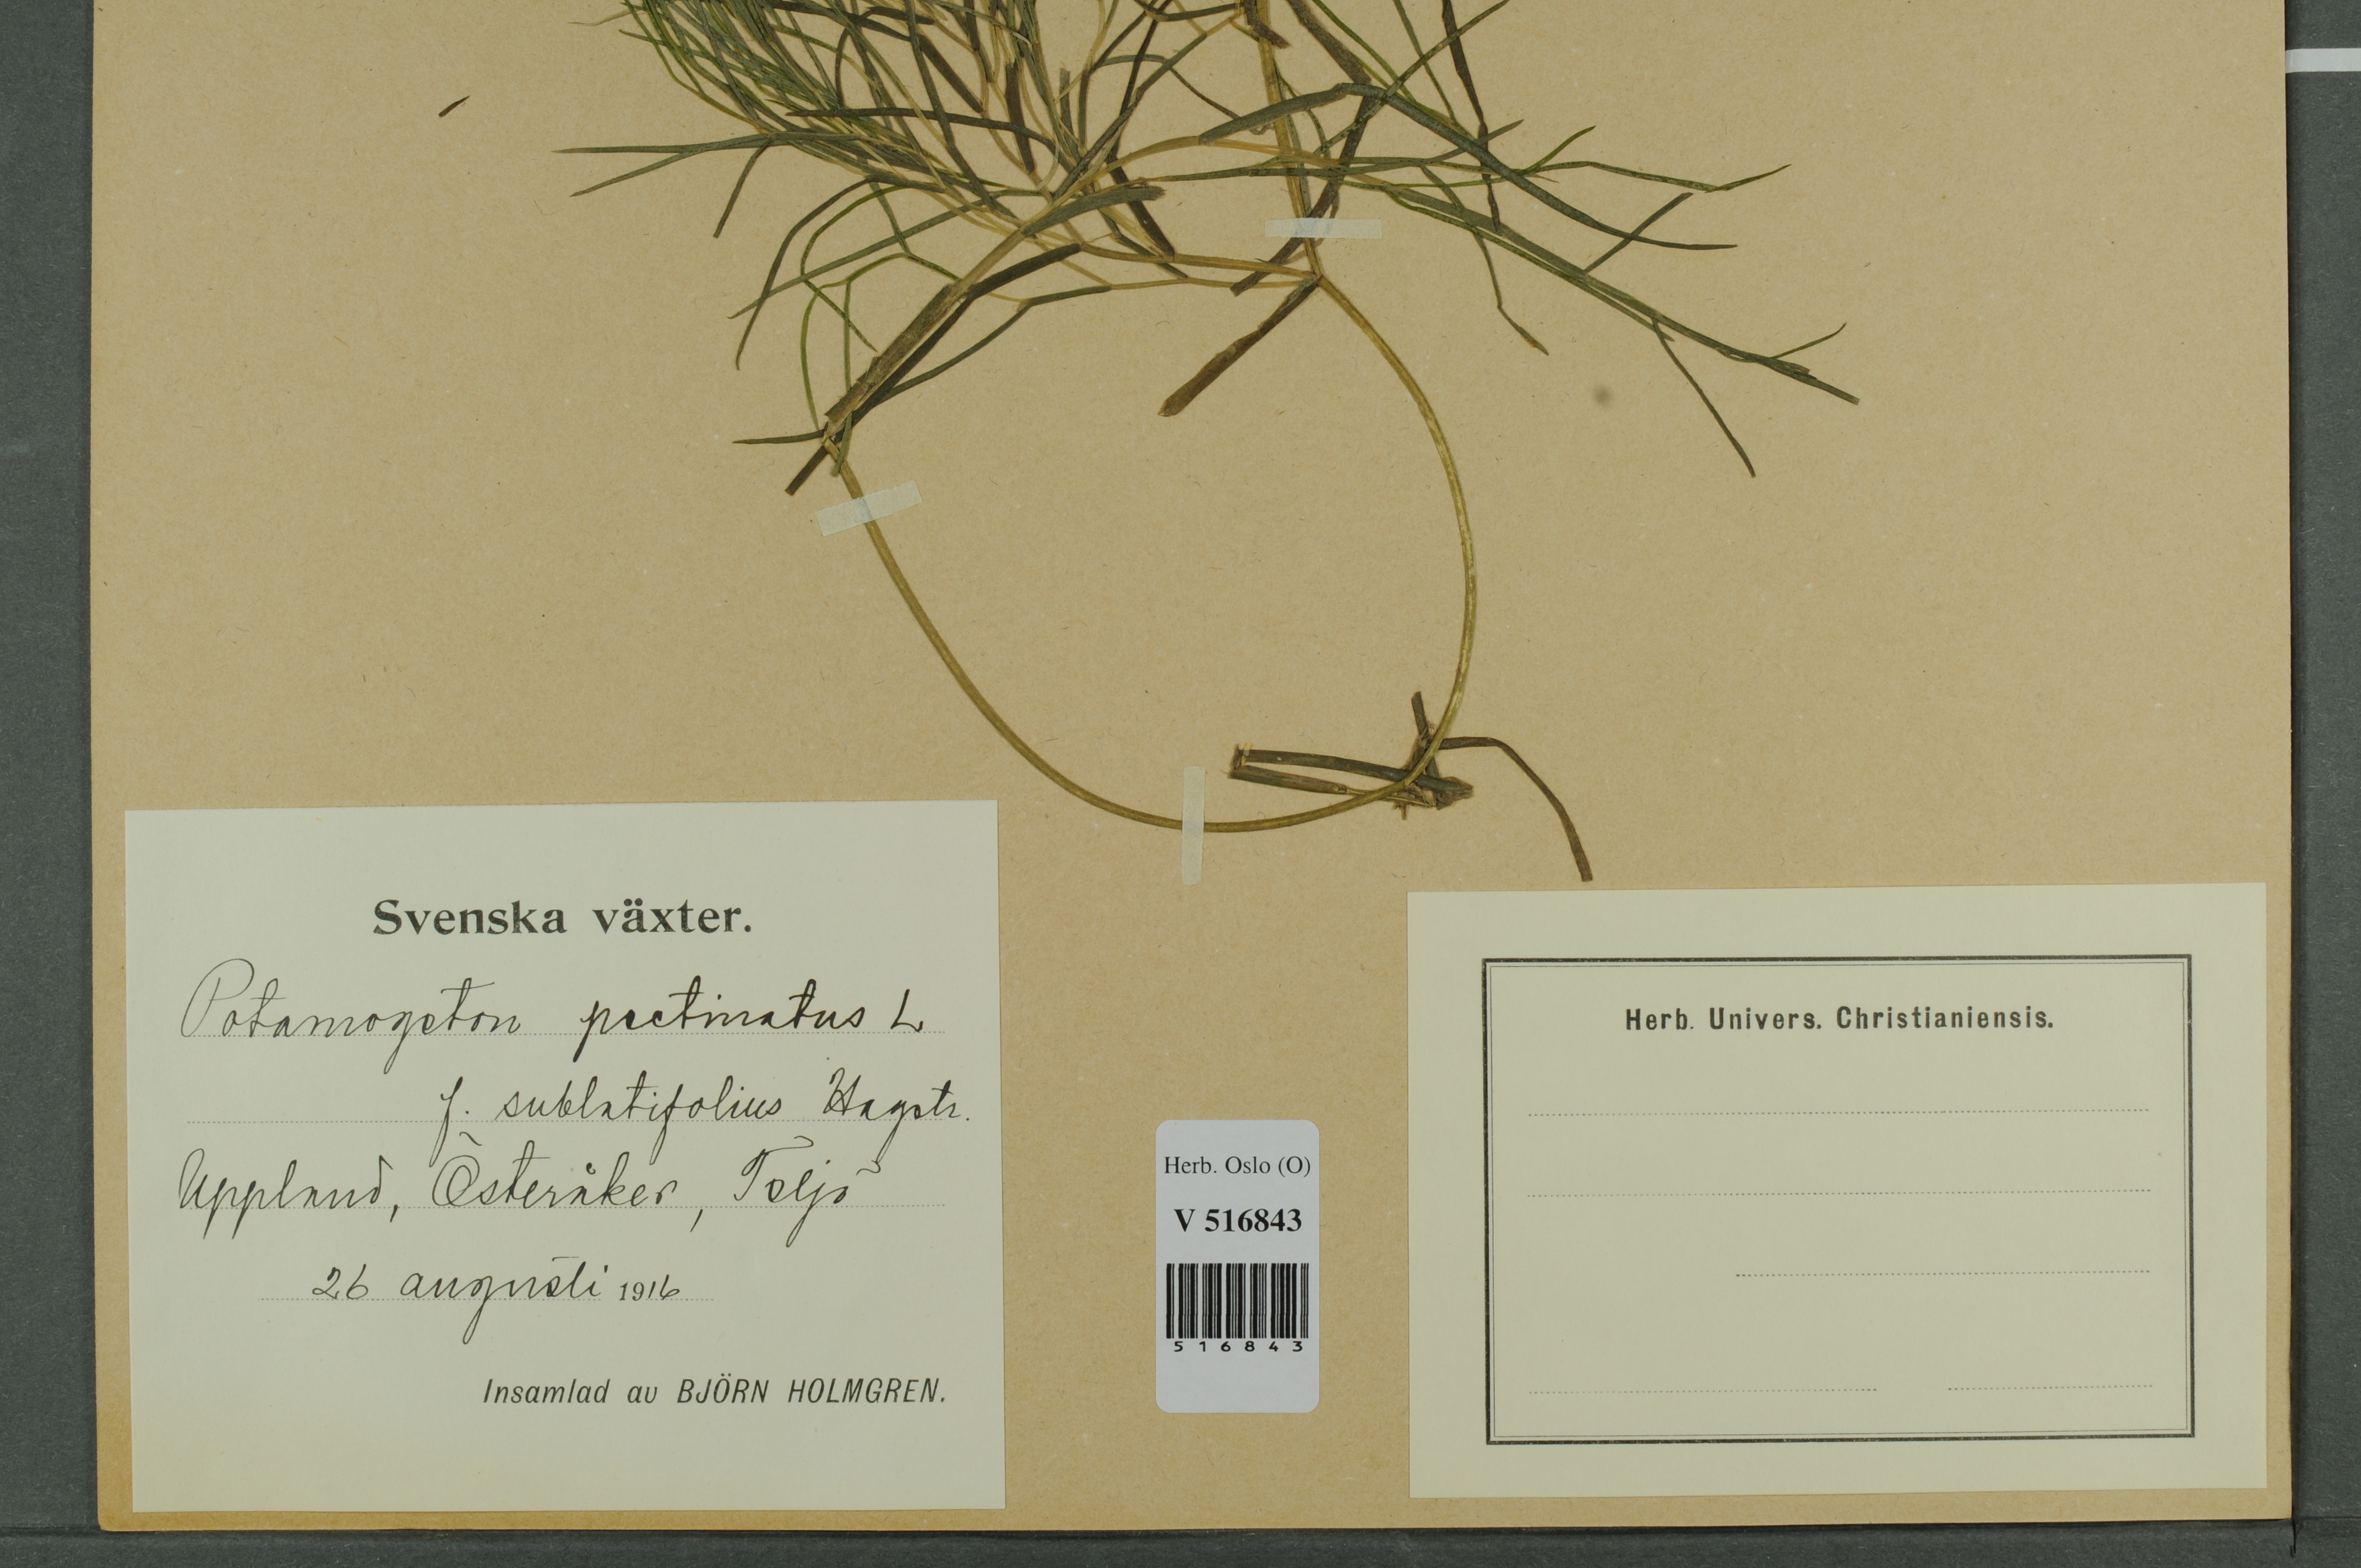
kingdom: Plantae
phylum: Tracheophyta
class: Liliopsida
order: Alismatales
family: Potamogetonaceae
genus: Stuckenia
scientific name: Stuckenia pectinata
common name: Sago pondweed
